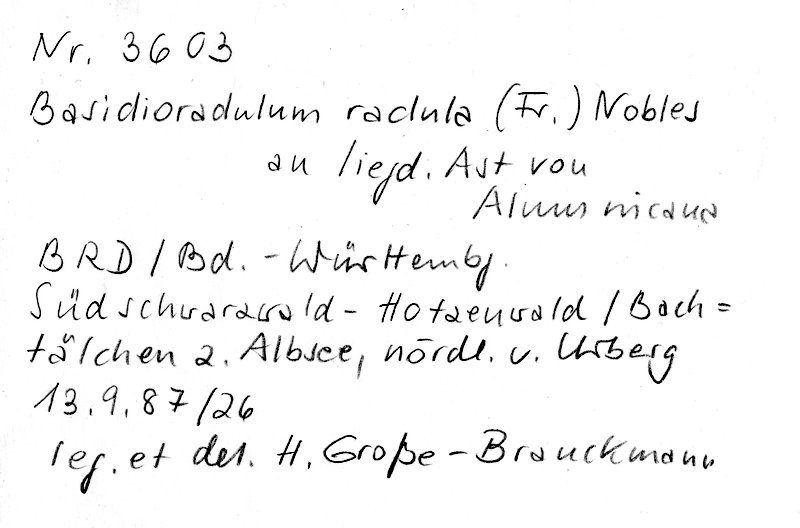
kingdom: Fungi
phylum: Basidiomycota
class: Agaricomycetes
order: Hymenochaetales
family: Schizoporaceae
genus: Xylodon
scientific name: Xylodon radula
